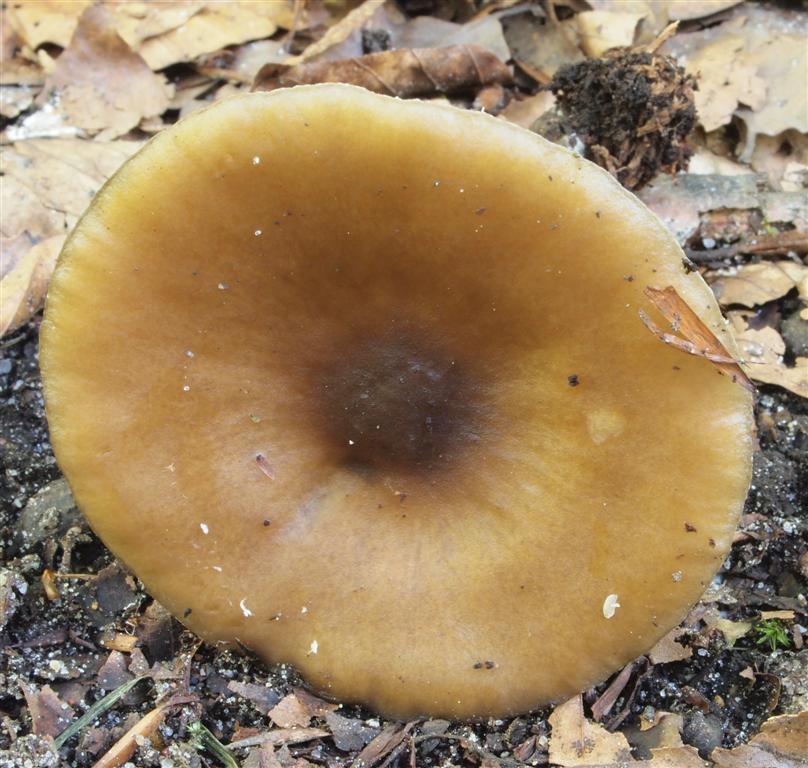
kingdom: Fungi
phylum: Basidiomycota
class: Agaricomycetes
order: Agaricales
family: Tricholomataceae
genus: Melanoleuca
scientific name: Melanoleuca grammopodia
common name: stribestokket munkehat
